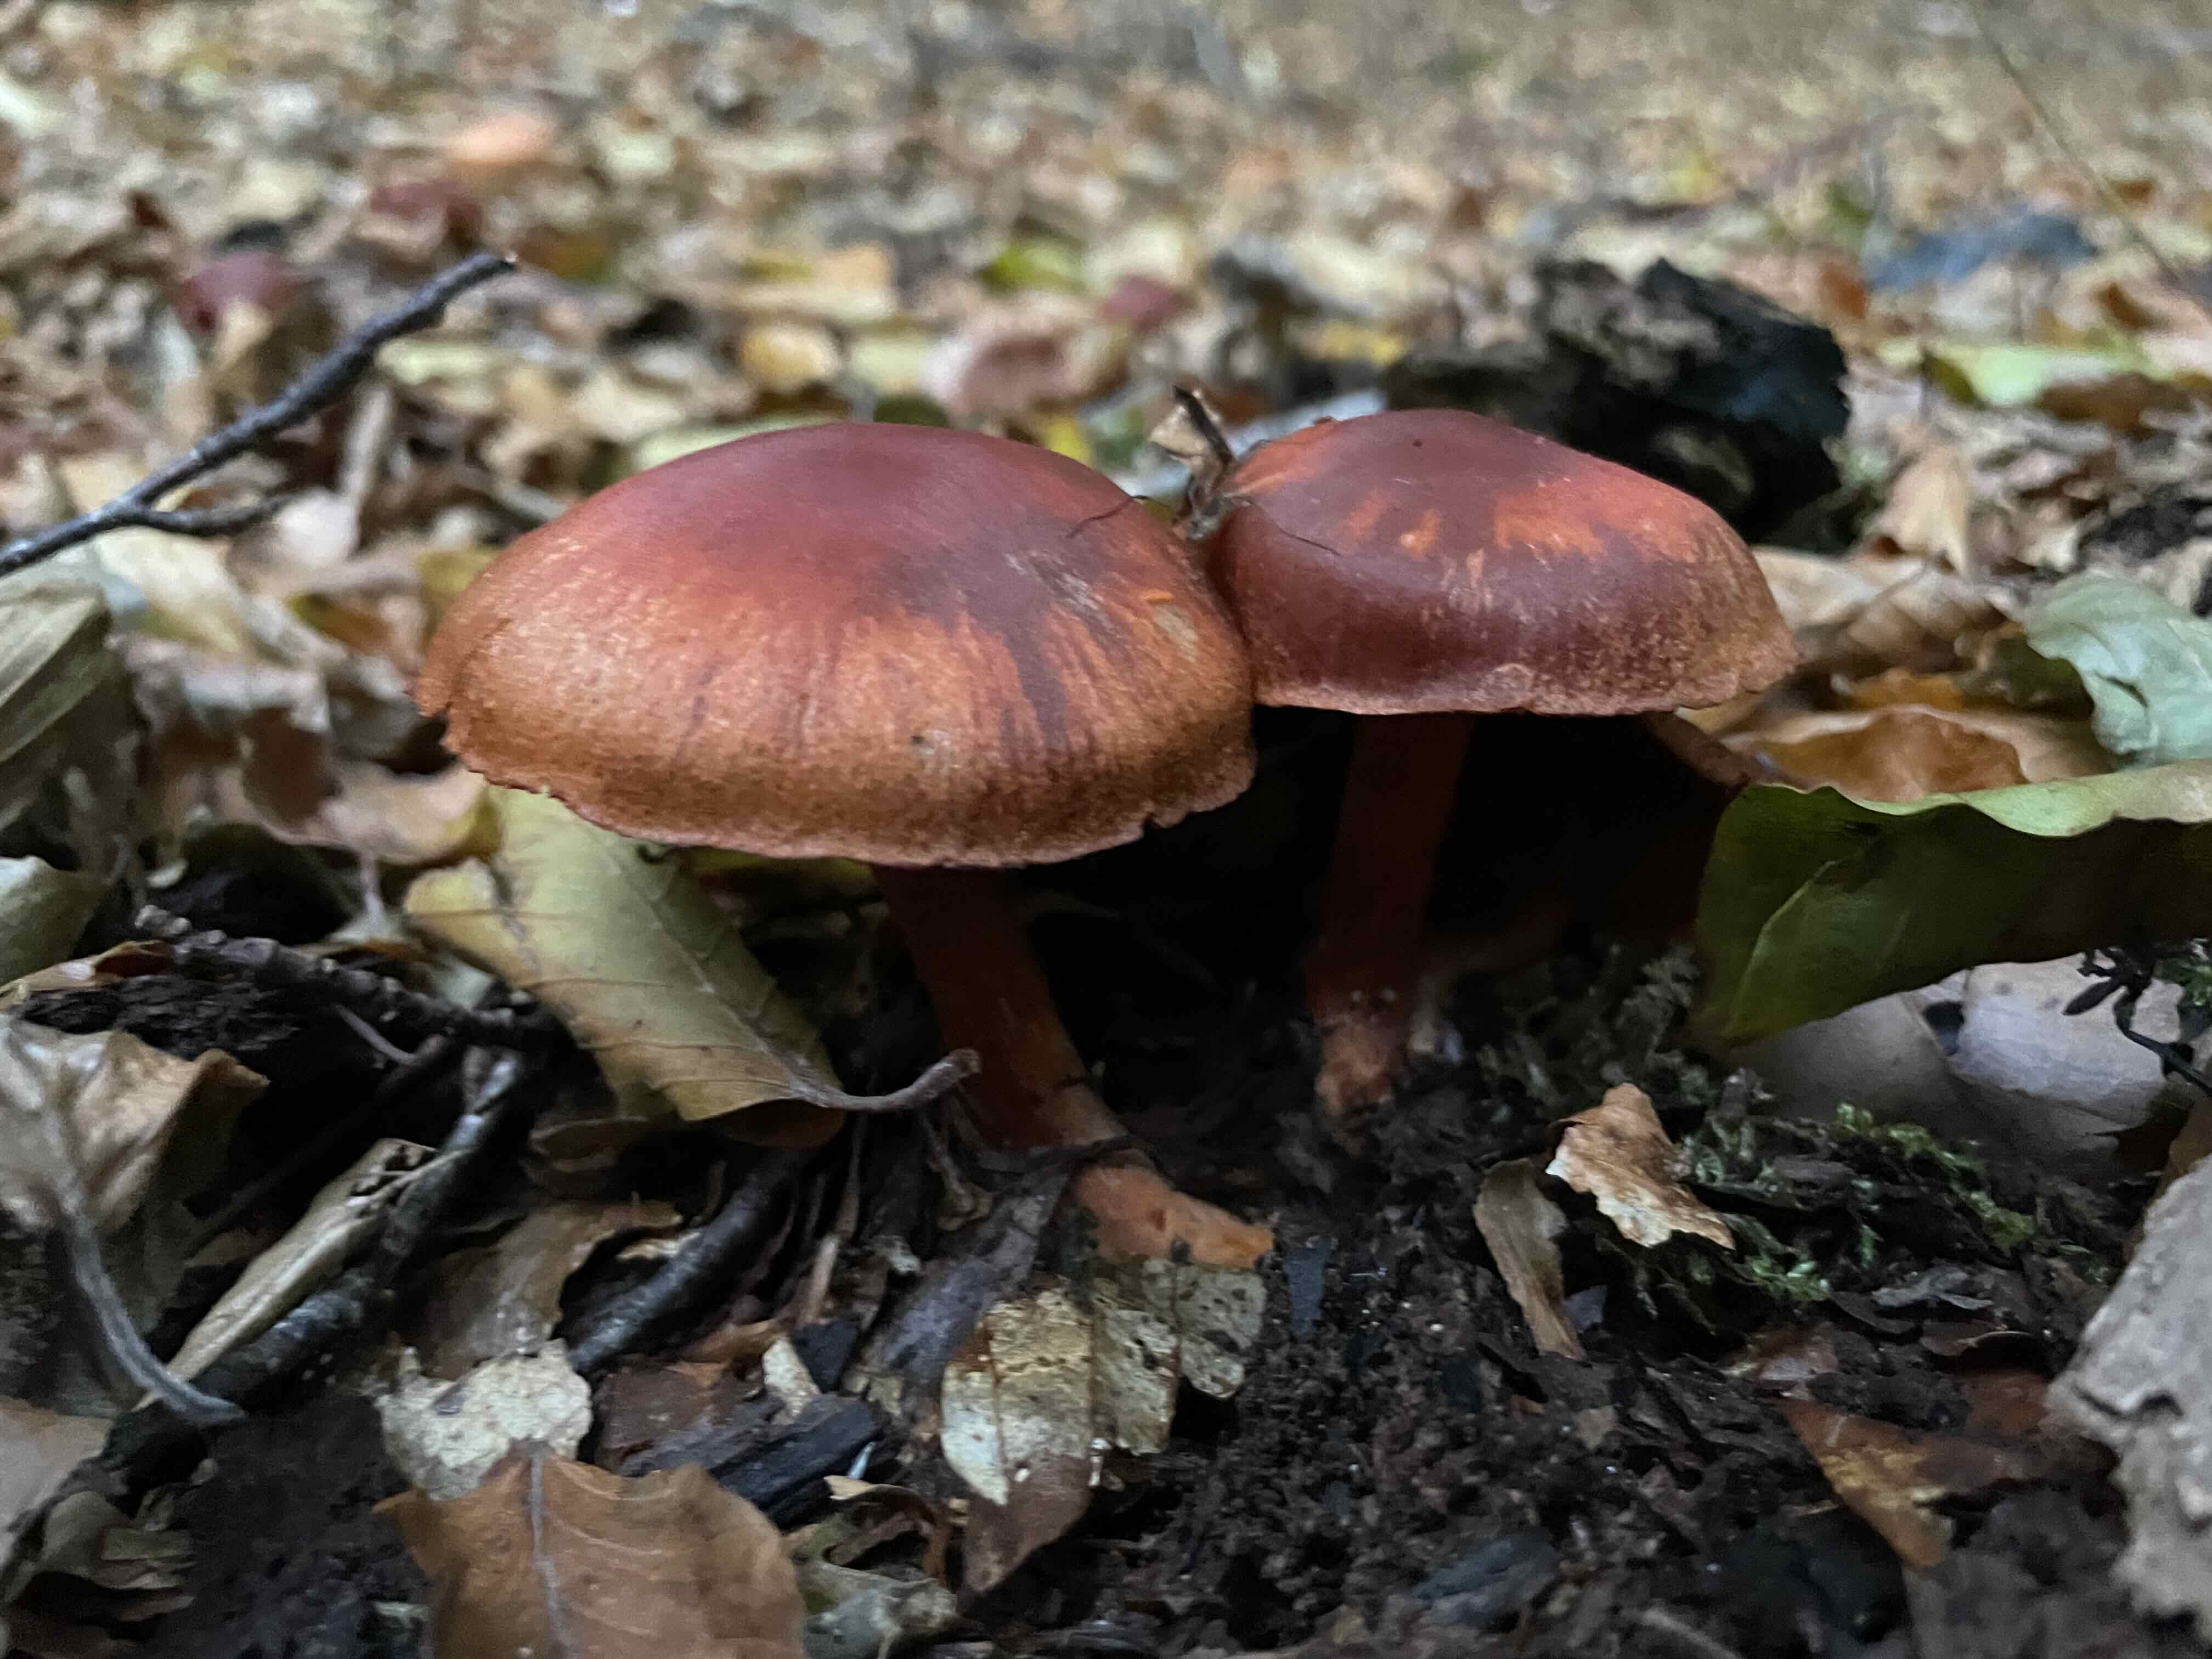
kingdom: Fungi
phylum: Basidiomycota
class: Agaricomycetes
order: Agaricales
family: Cortinariaceae
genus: Cortinarius
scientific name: Cortinarius cinnabarinus
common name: cinnober-slørhat
